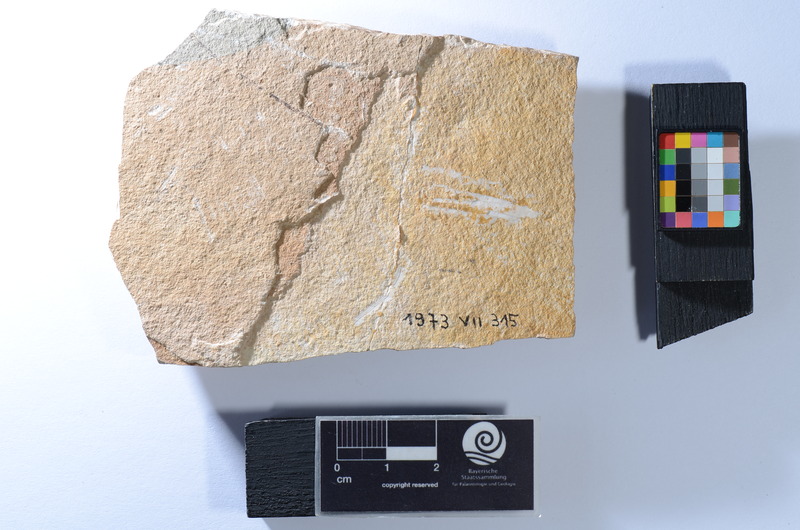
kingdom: Animalia
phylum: Chordata
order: Clupeiformes
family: Clupeidae
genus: Clupea
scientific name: Clupea
